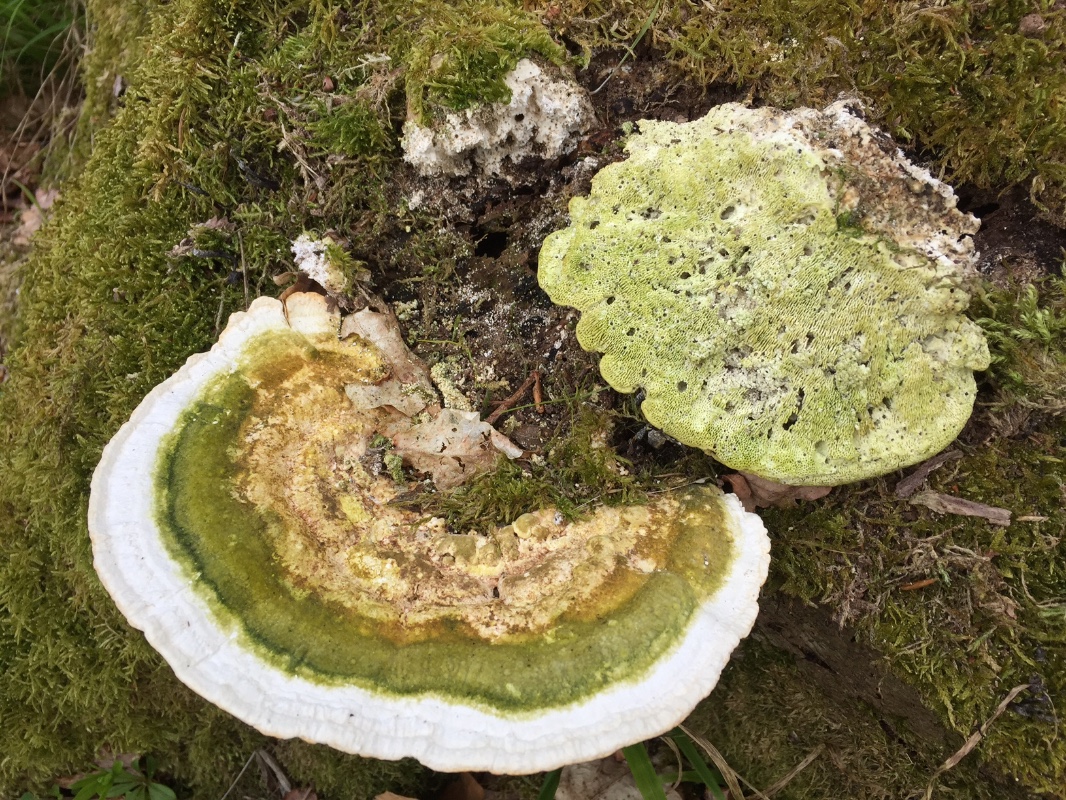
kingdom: Fungi
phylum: Basidiomycota
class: Agaricomycetes
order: Polyporales
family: Polyporaceae
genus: Trametes
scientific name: Trametes gibbosa
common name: puklet læderporesvamp
